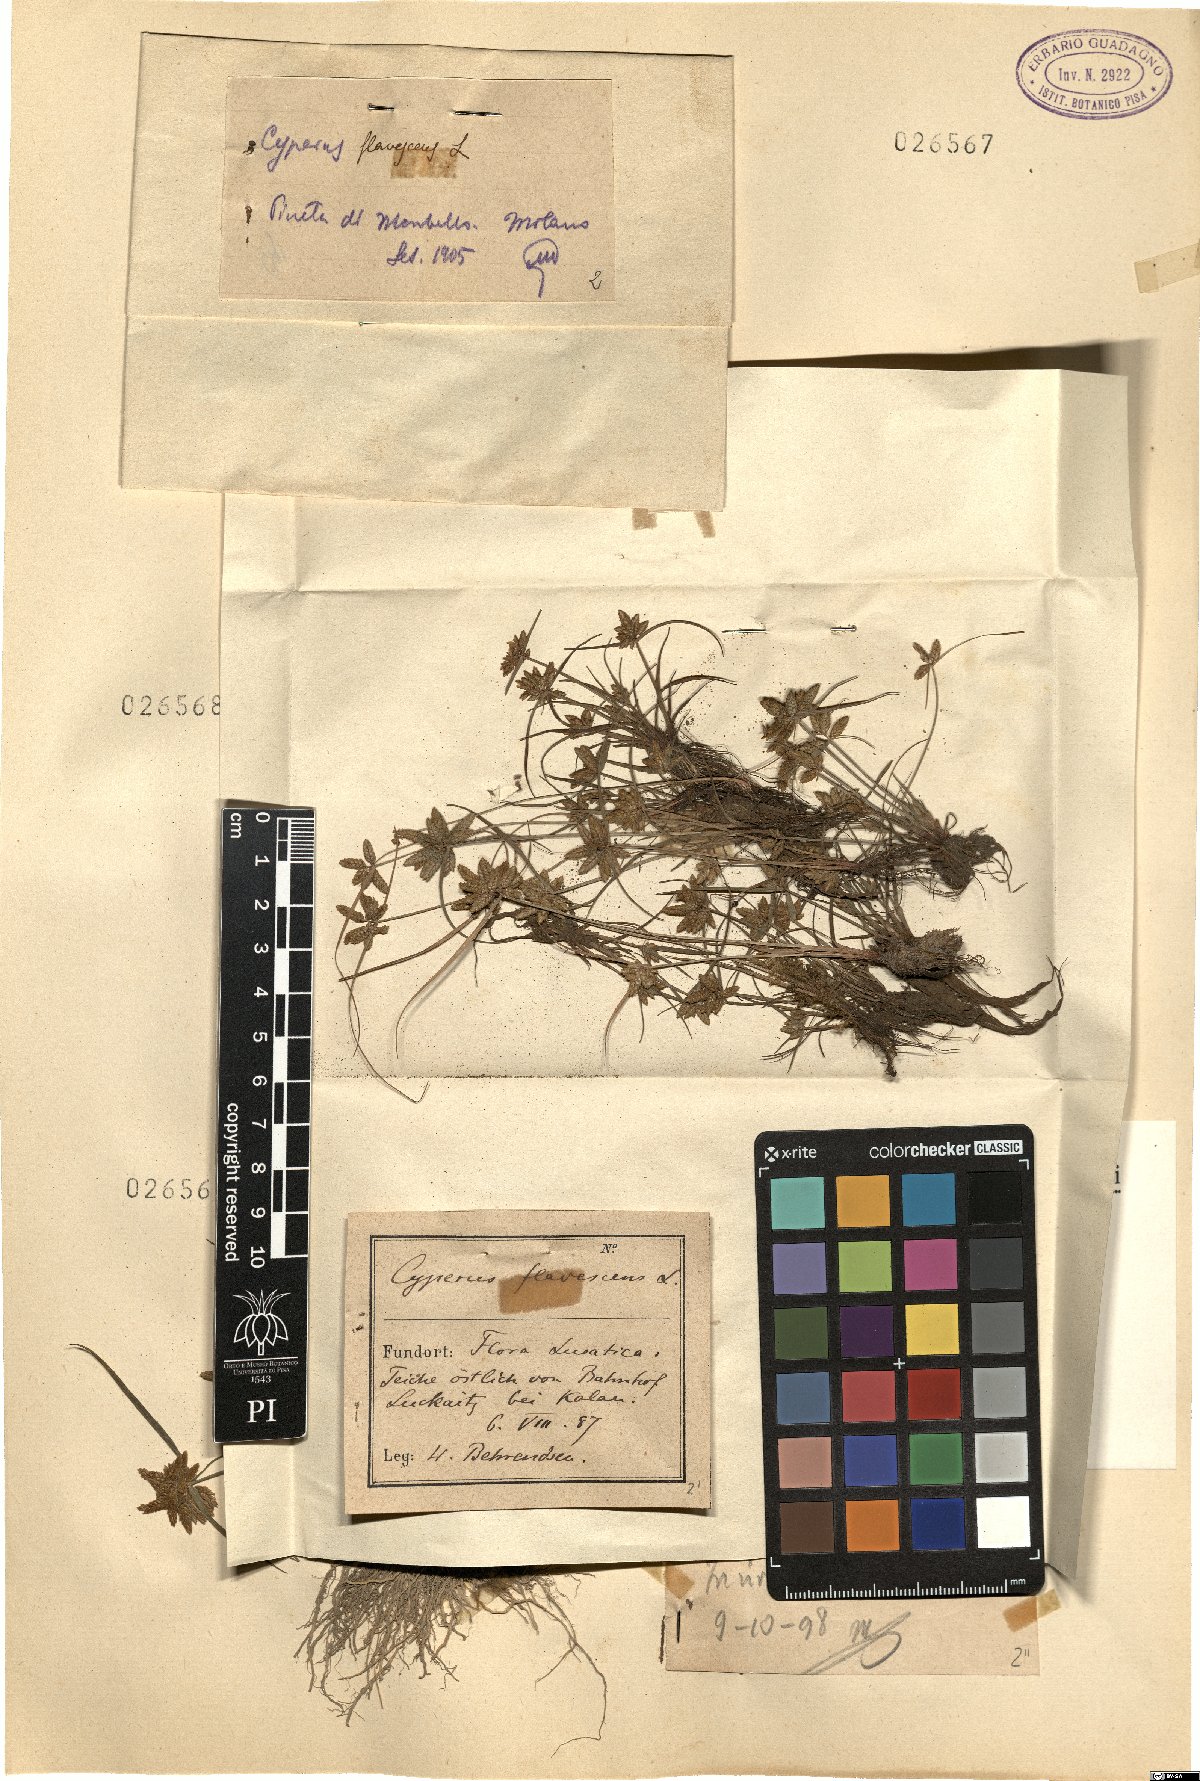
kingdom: Plantae
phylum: Tracheophyta
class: Liliopsida
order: Poales
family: Cyperaceae
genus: Cyperus
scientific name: Cyperus flavescens
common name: Yellow galingale
